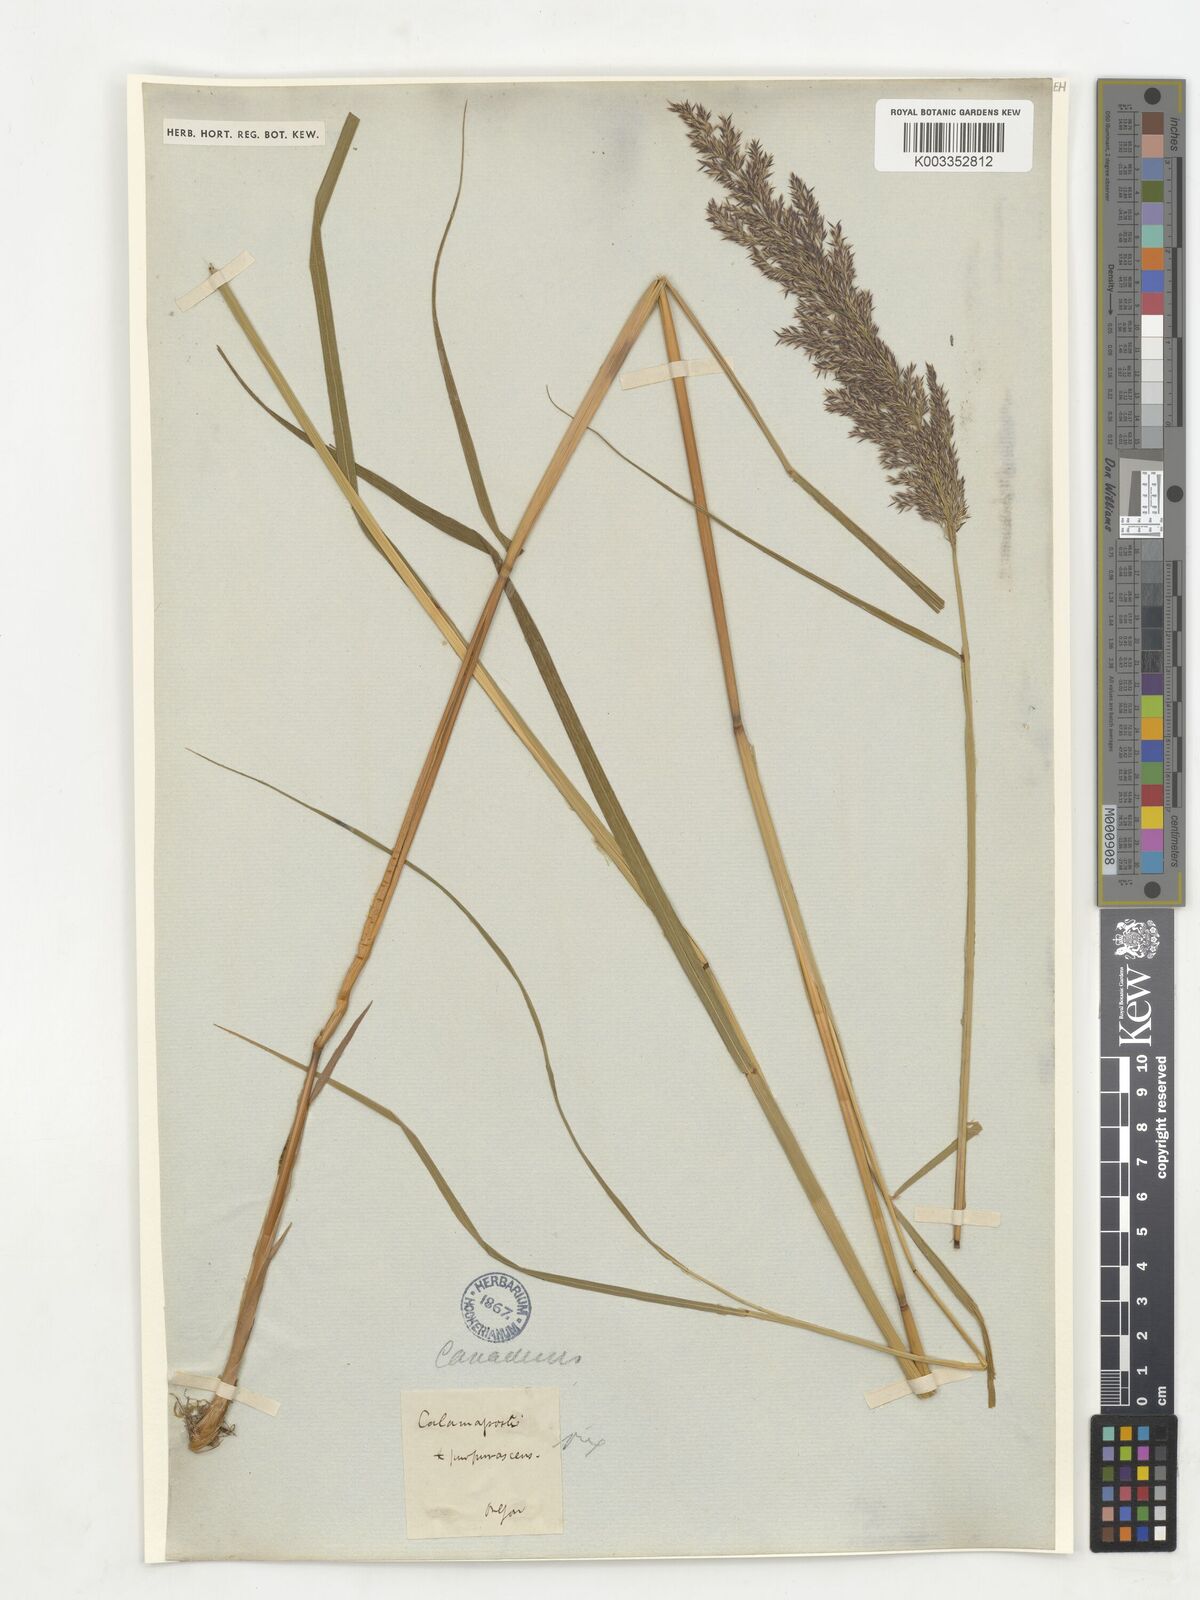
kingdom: Plantae
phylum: Tracheophyta
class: Liliopsida
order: Poales
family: Poaceae
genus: Calamagrostis
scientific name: Calamagrostis canadensis
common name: Canada bluejoint
